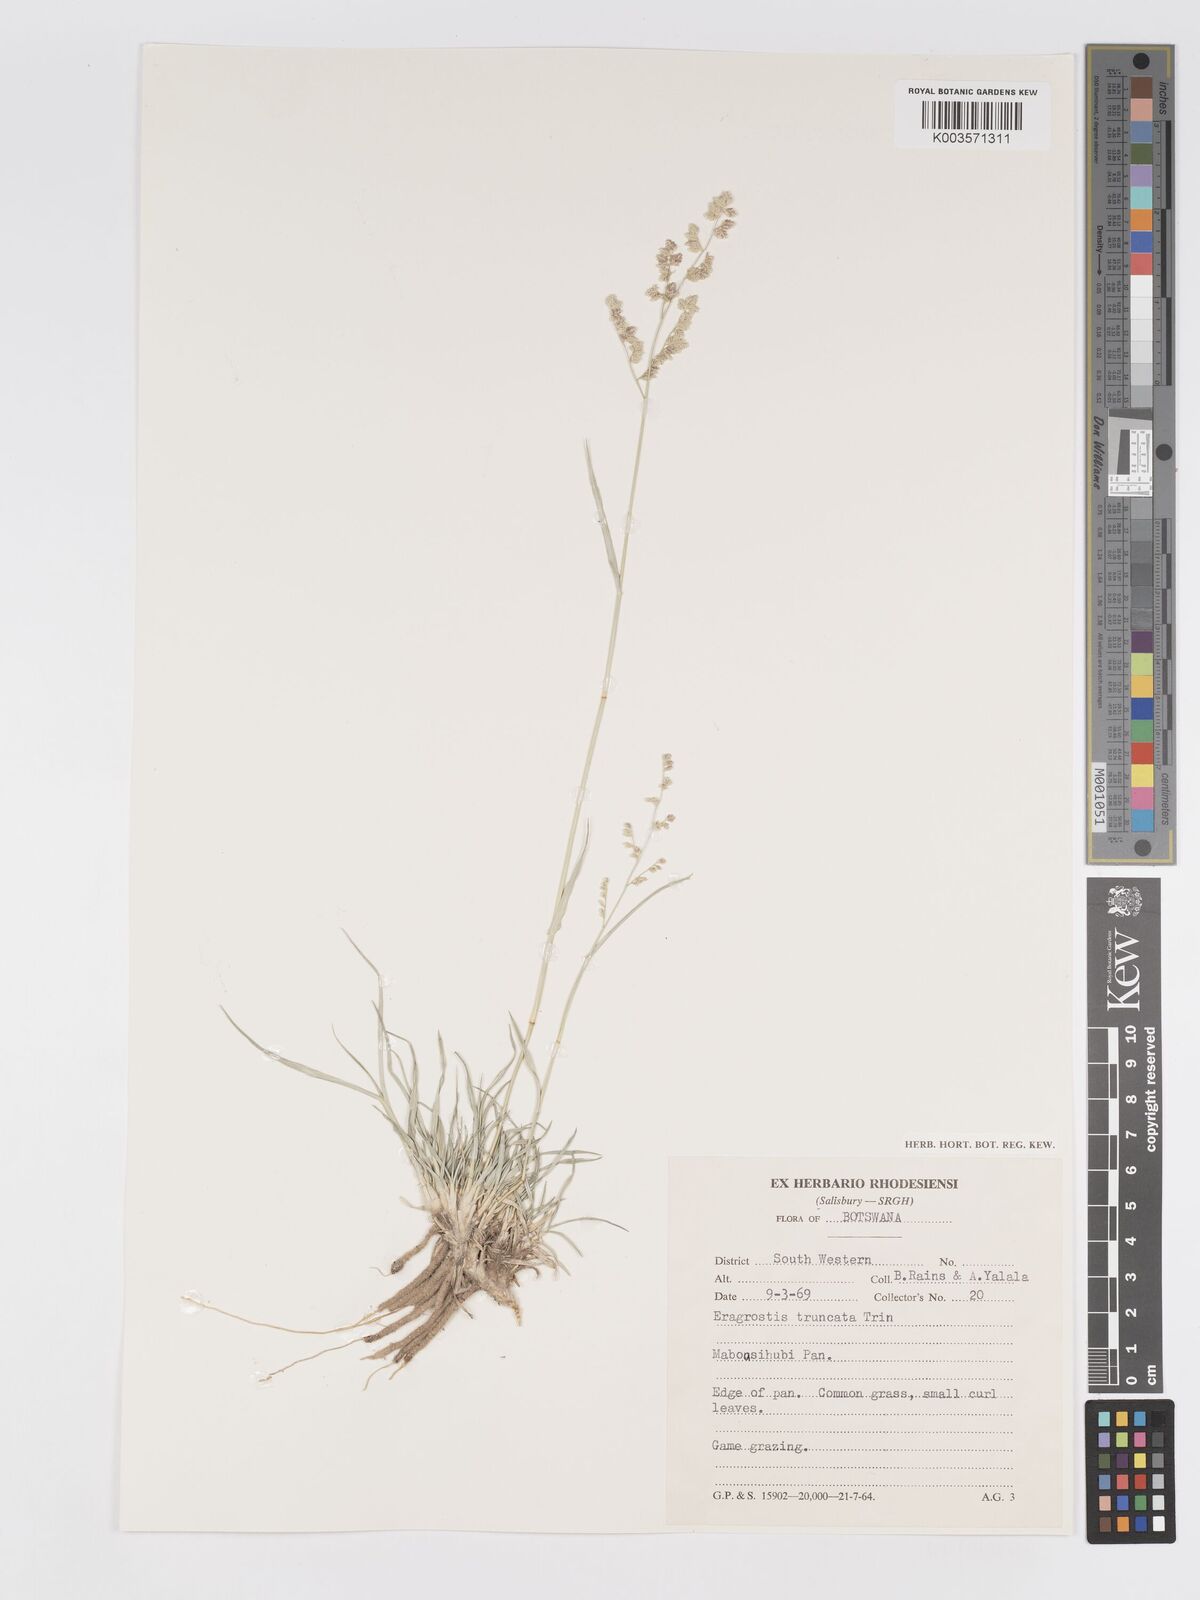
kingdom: Plantae
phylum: Tracheophyta
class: Liliopsida
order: Poales
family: Poaceae
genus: Eragrostis
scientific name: Eragrostis truncata
